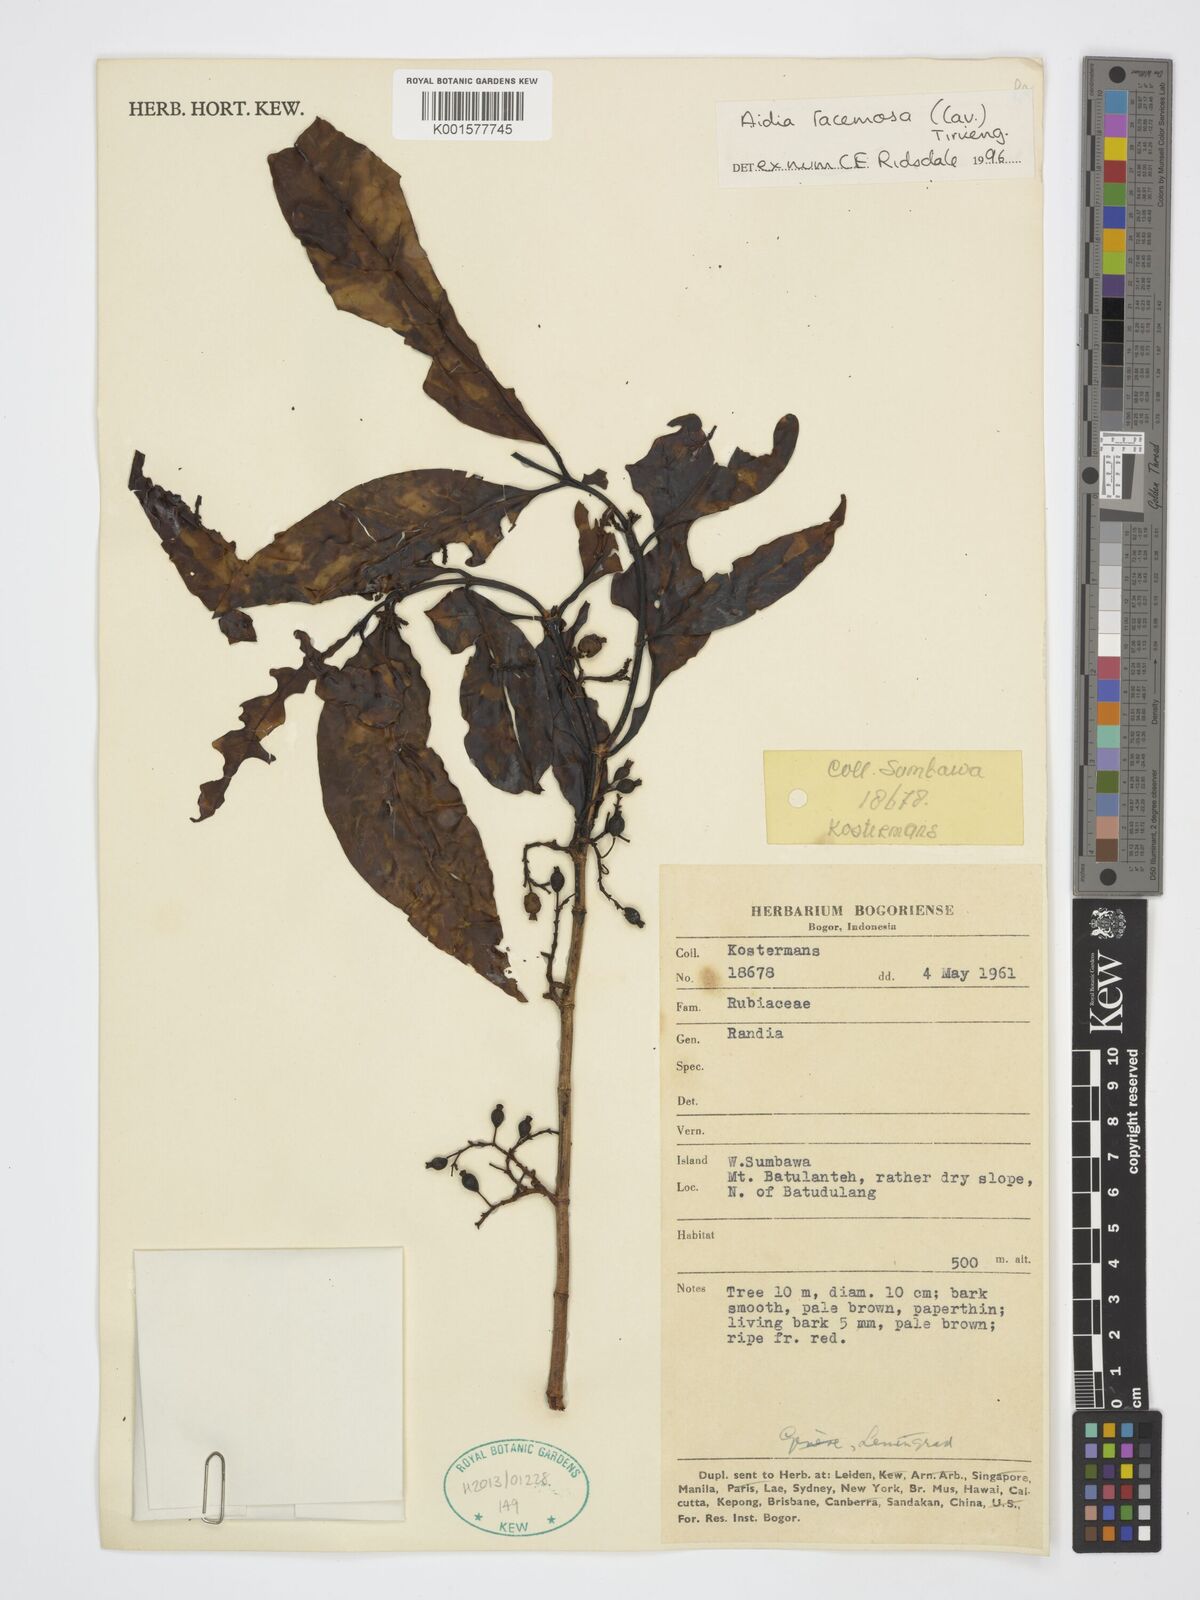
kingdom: Plantae
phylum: Tracheophyta
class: Magnoliopsida
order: Gentianales
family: Rubiaceae
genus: Aidia
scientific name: Aidia racemosa
